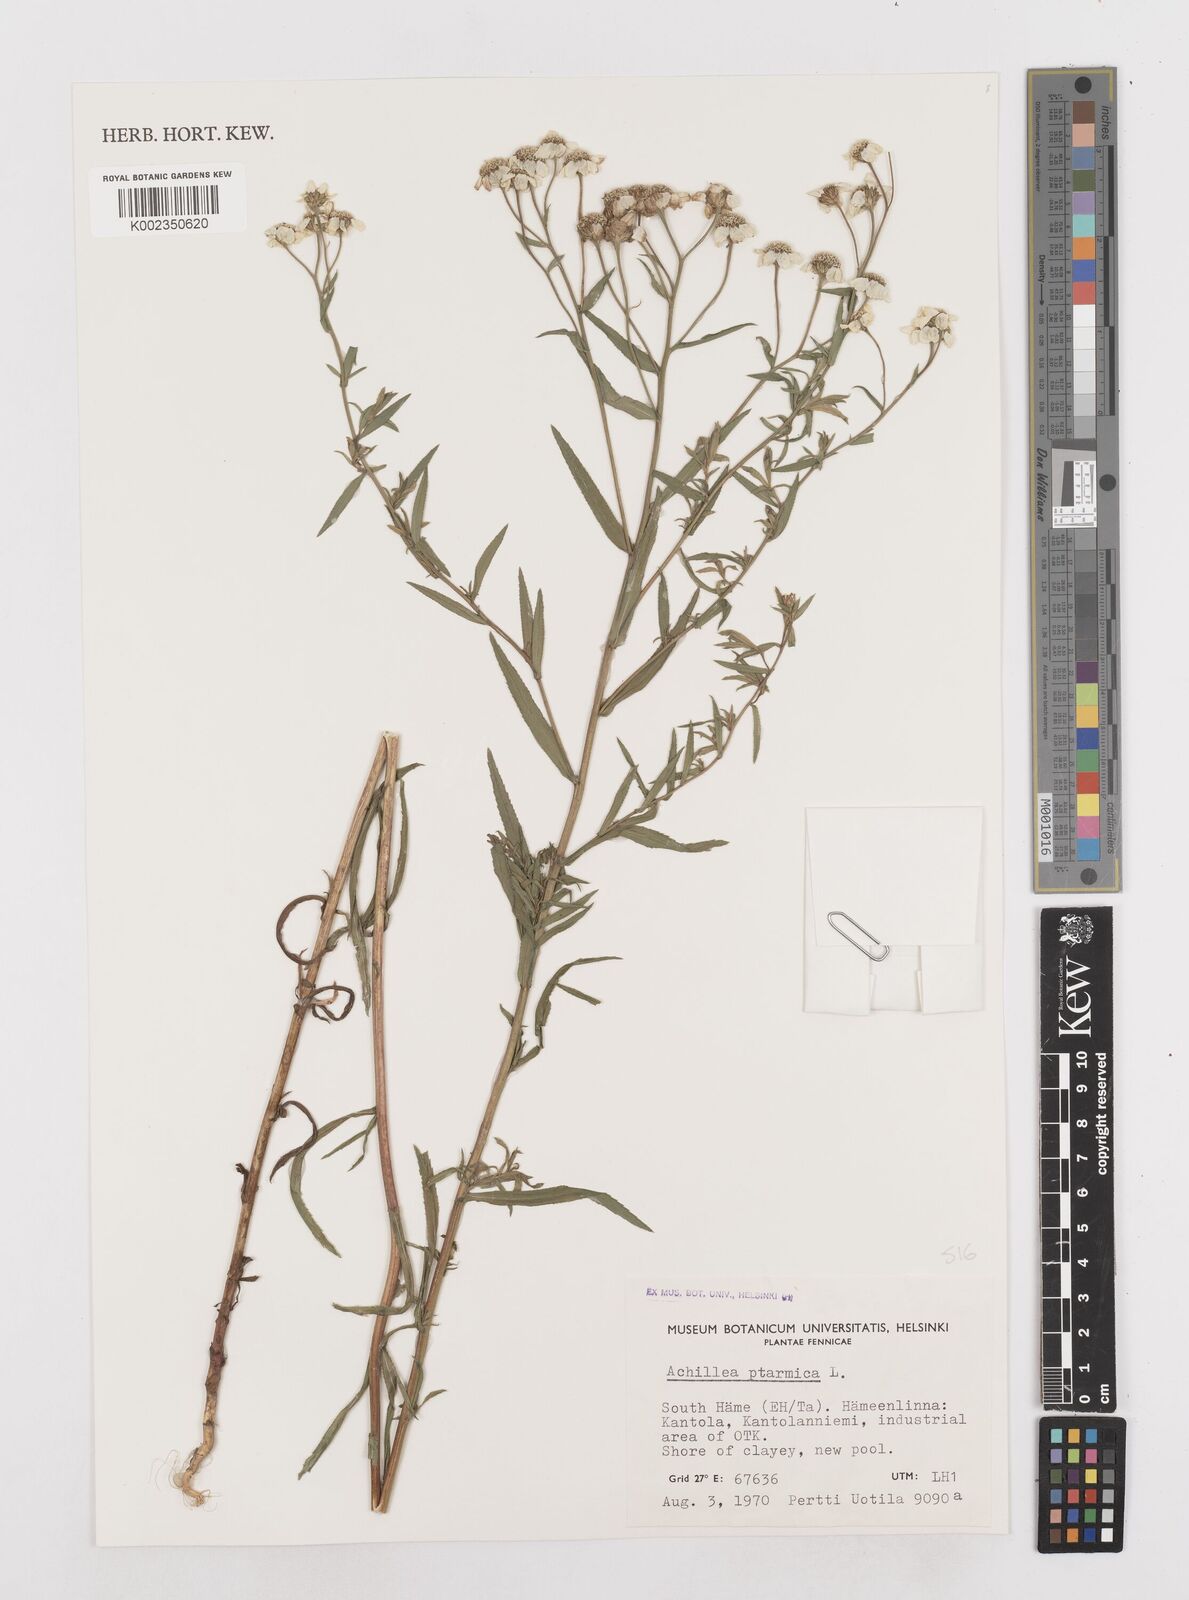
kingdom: Plantae
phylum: Tracheophyta
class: Magnoliopsida
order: Asterales
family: Asteraceae
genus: Achillea
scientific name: Achillea ptarmica
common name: Sneezeweed
